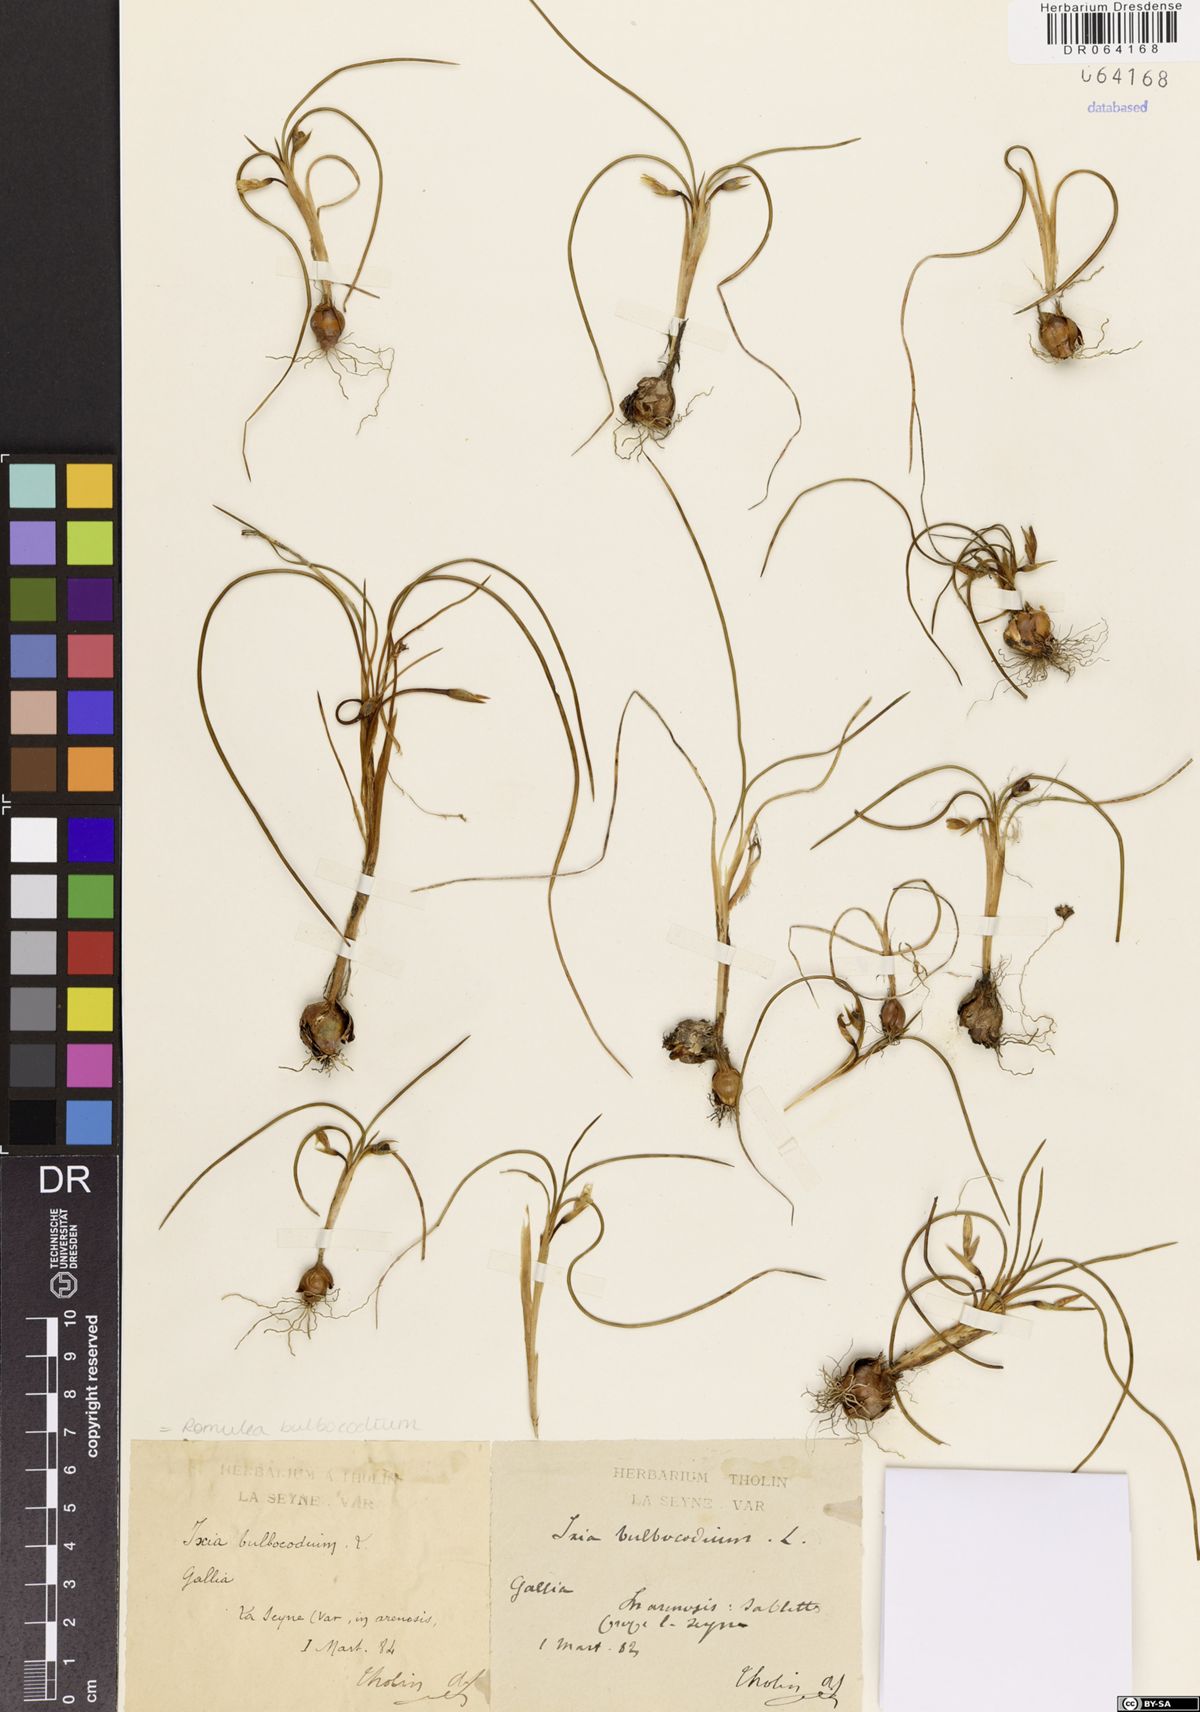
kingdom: Plantae
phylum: Tracheophyta
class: Liliopsida
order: Asparagales
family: Iridaceae
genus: Romulea
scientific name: Romulea bulbocodium
